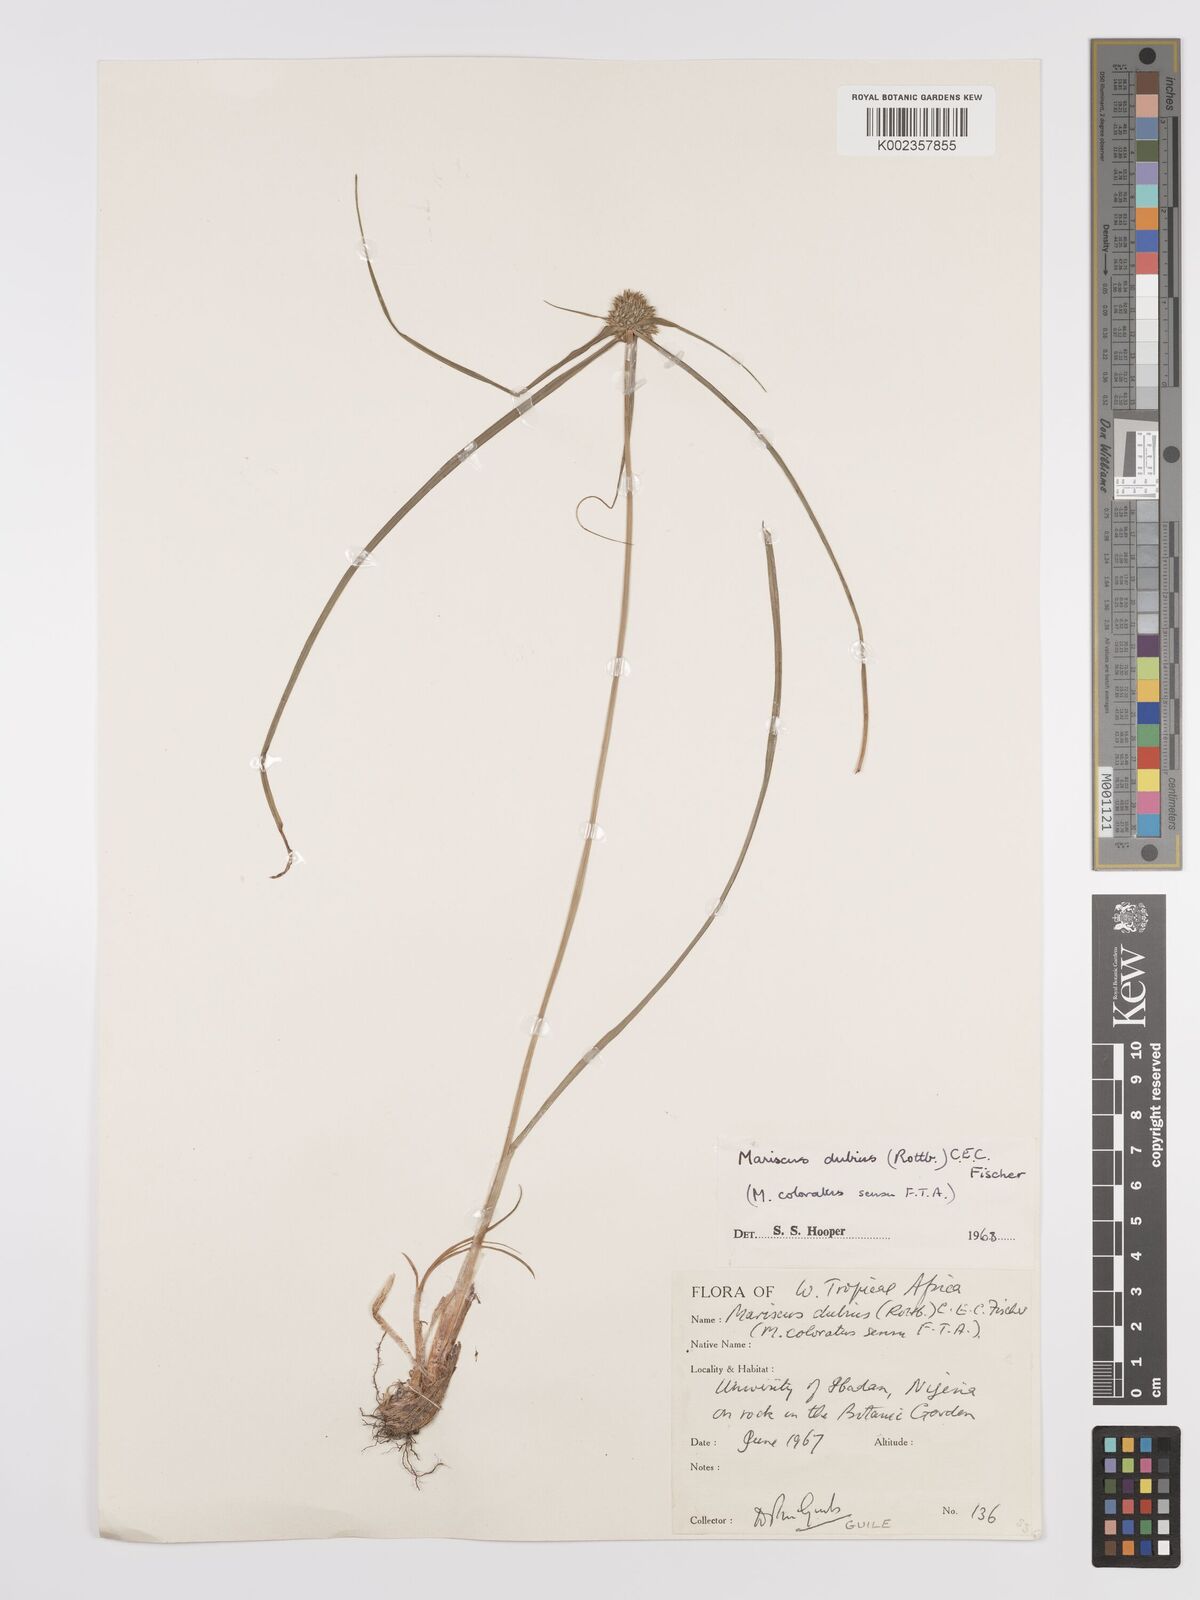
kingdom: Plantae
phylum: Tracheophyta
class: Liliopsida
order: Poales
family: Cyperaceae
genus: Cyperus
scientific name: Cyperus dubius
